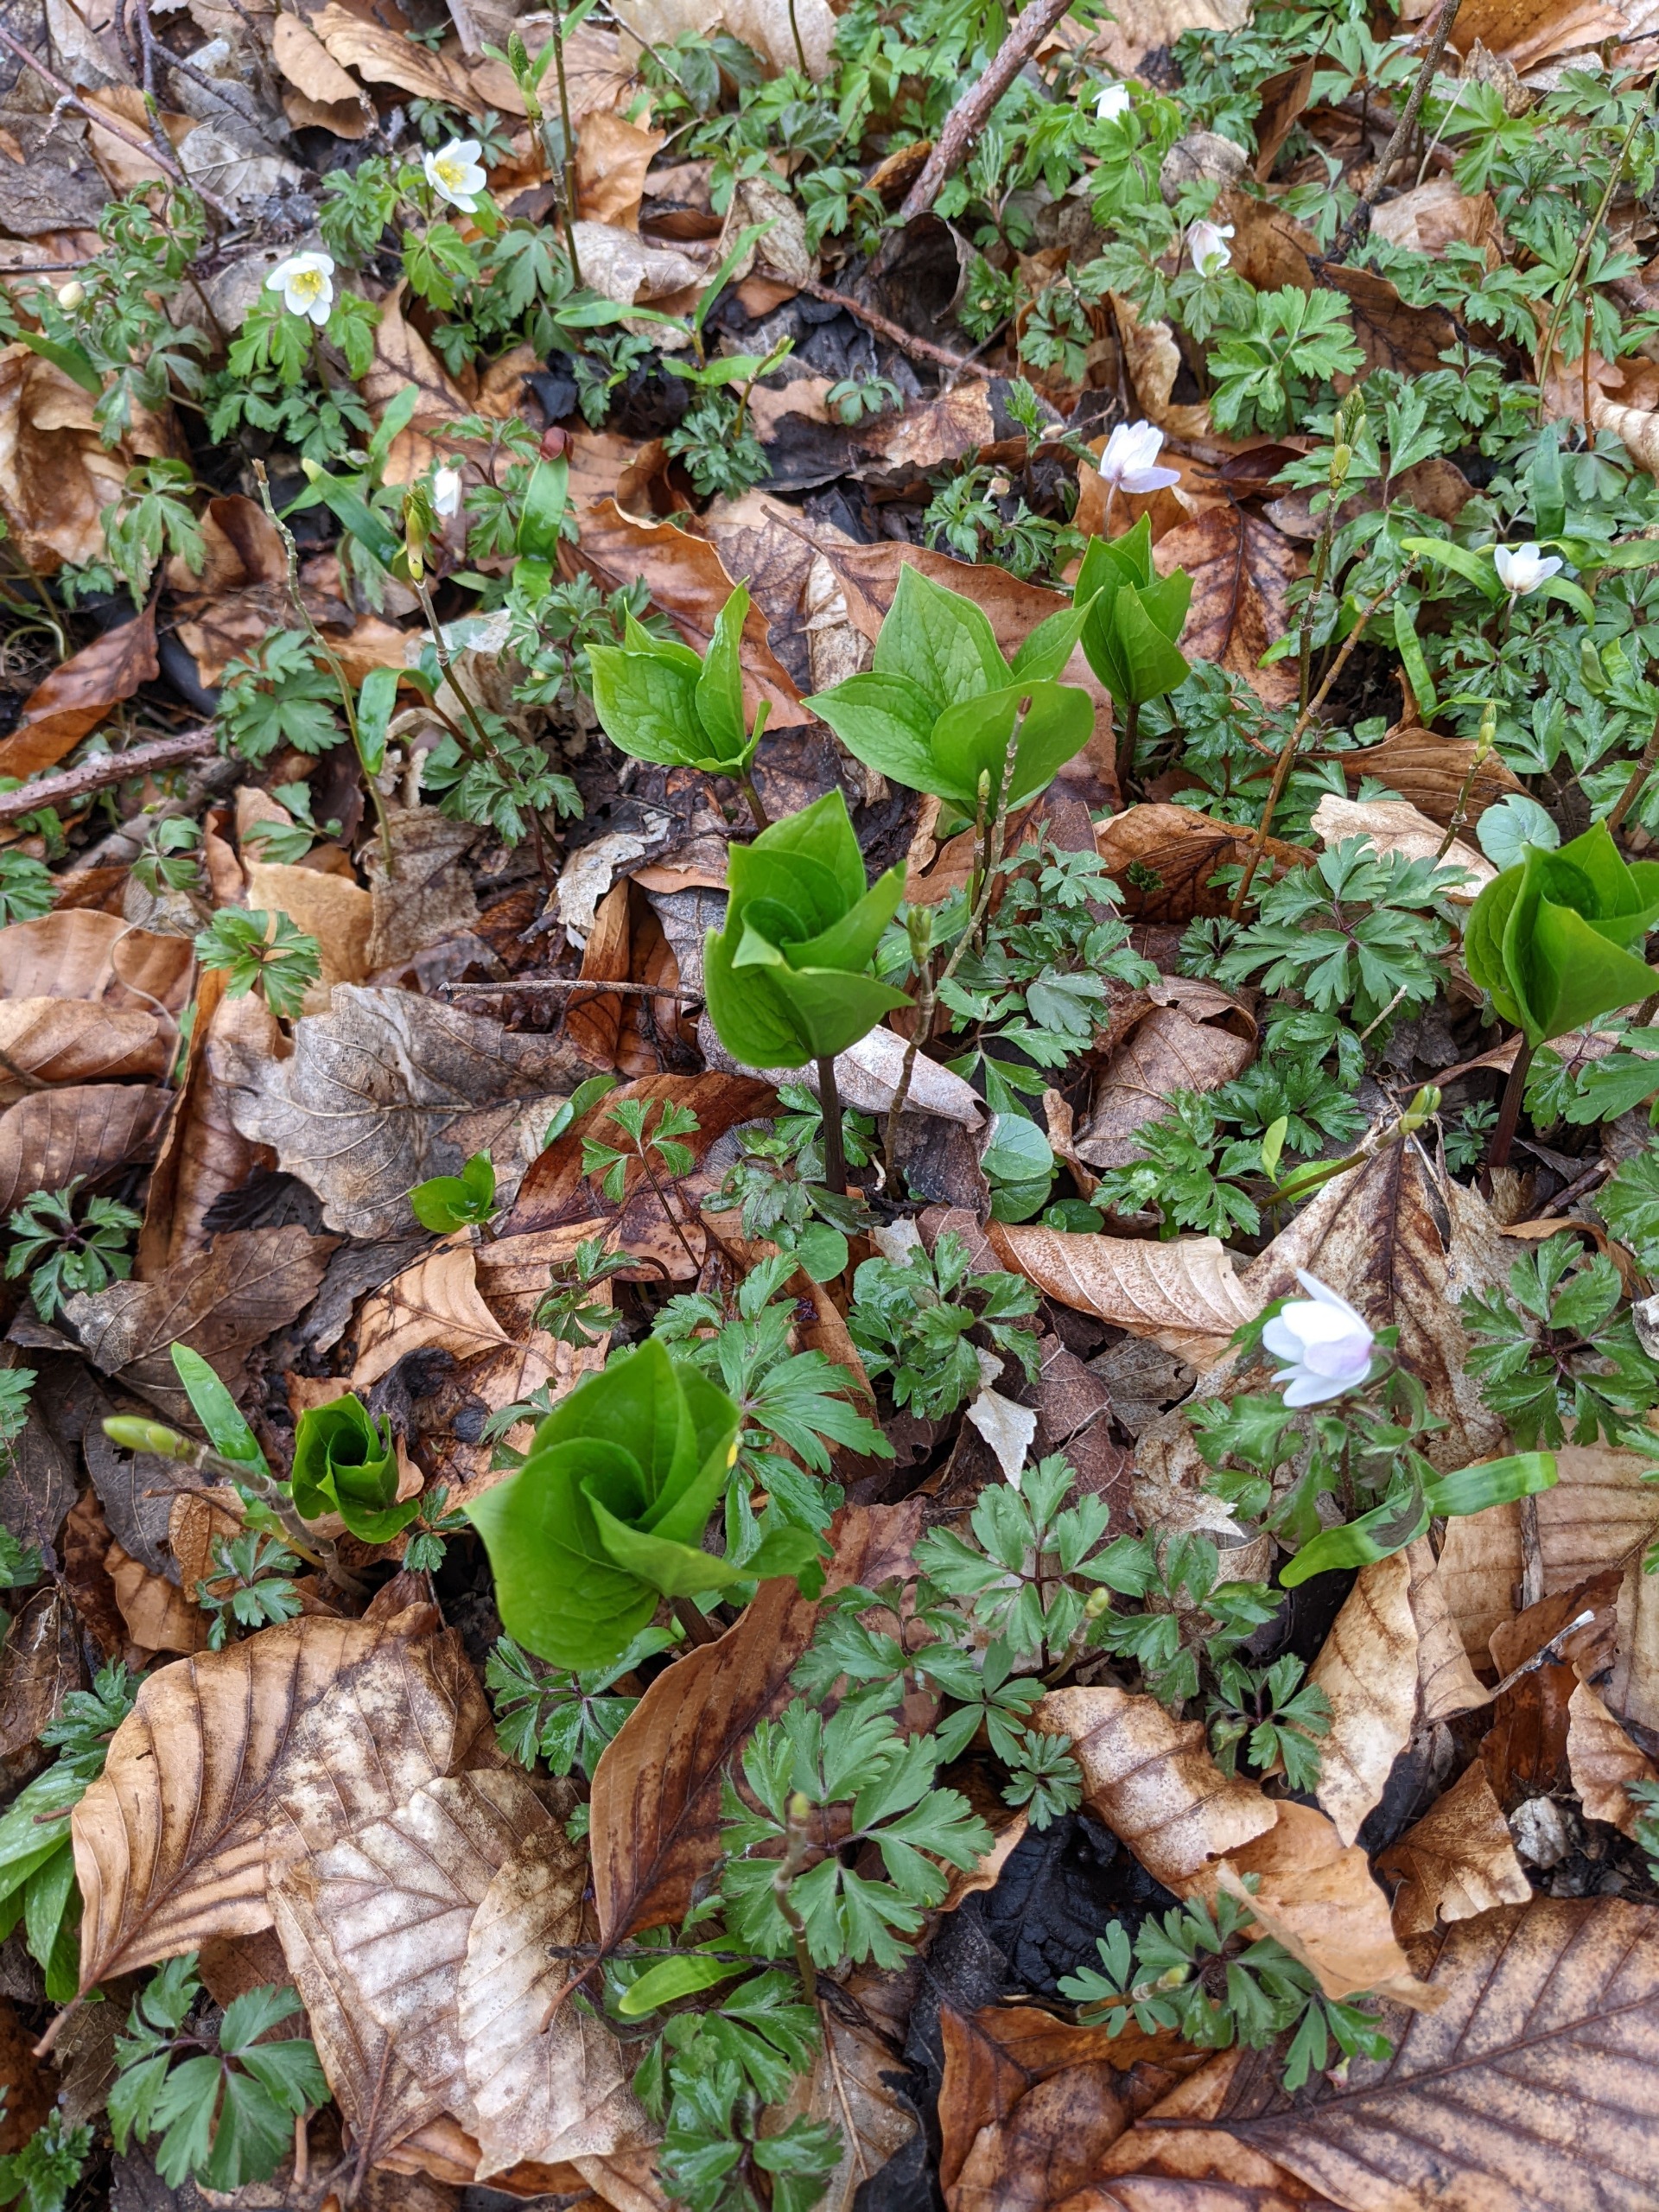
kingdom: Plantae
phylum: Tracheophyta
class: Liliopsida
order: Liliales
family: Melanthiaceae
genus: Paris
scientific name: Paris quadrifolia
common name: Firblad
